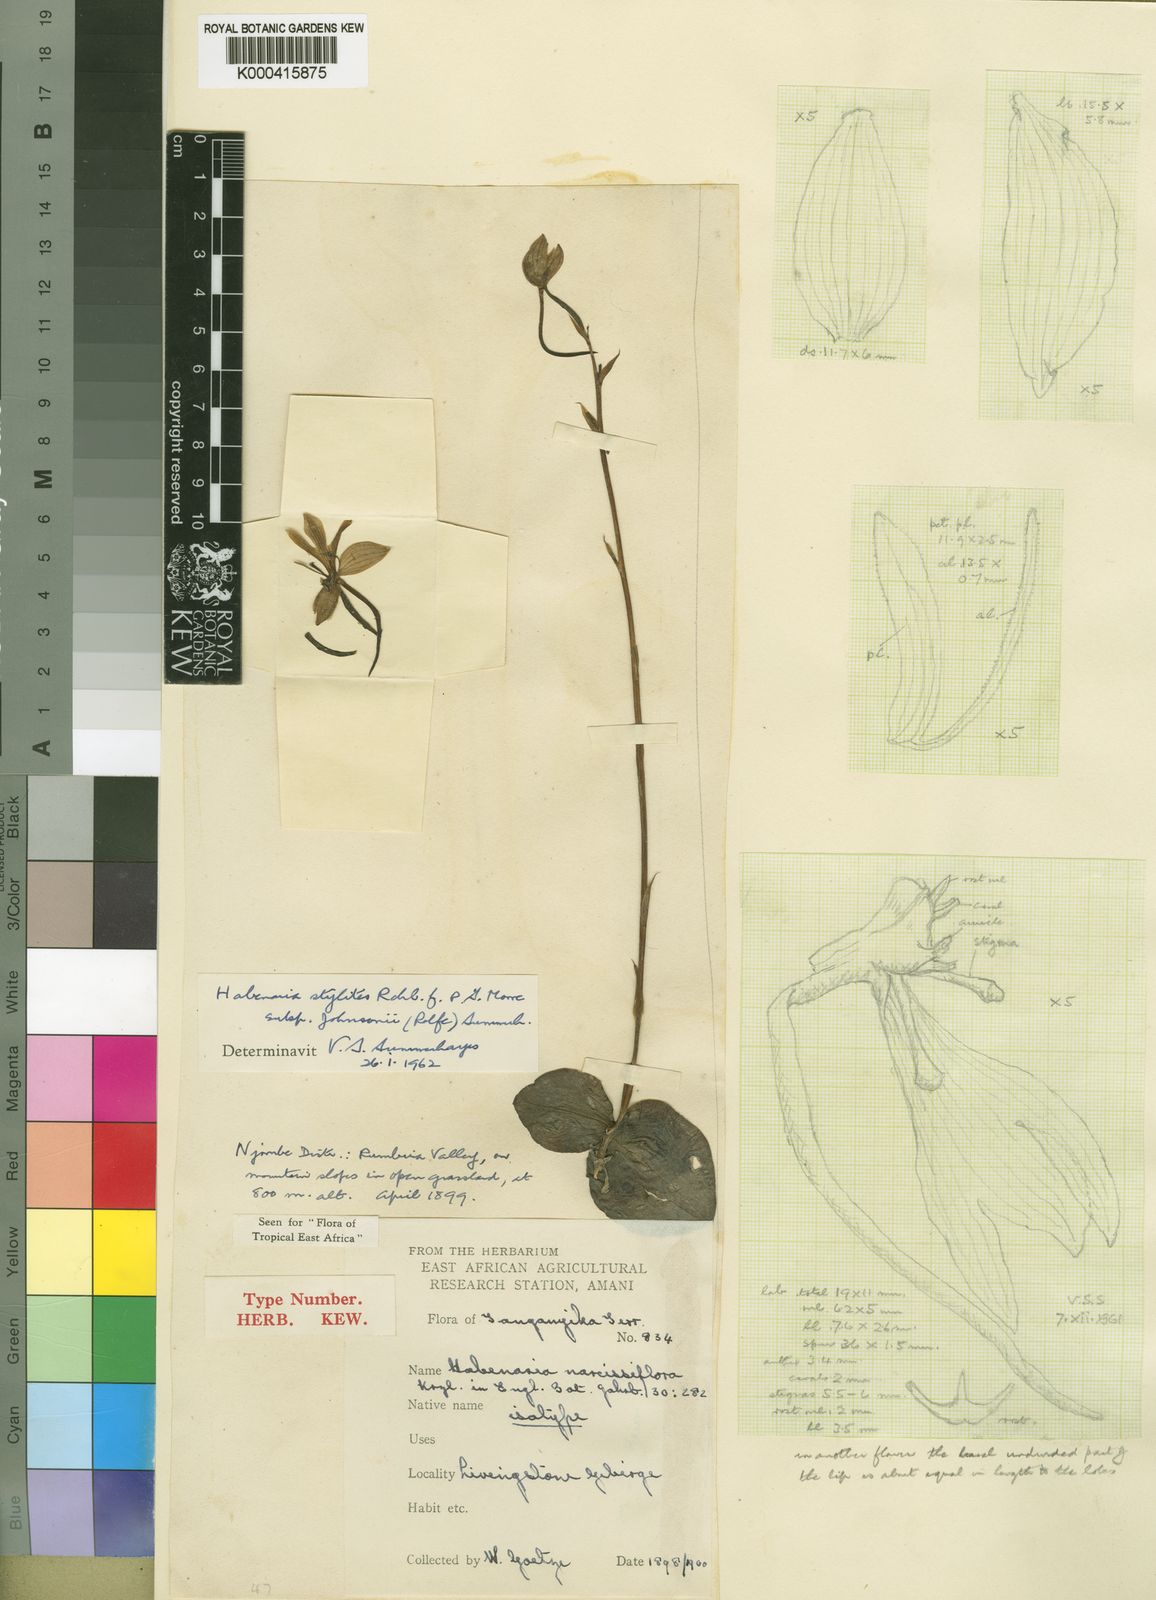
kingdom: Plantae
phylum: Tracheophyta
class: Liliopsida
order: Asparagales
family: Orchidaceae
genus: Habenaria
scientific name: Habenaria stylites
